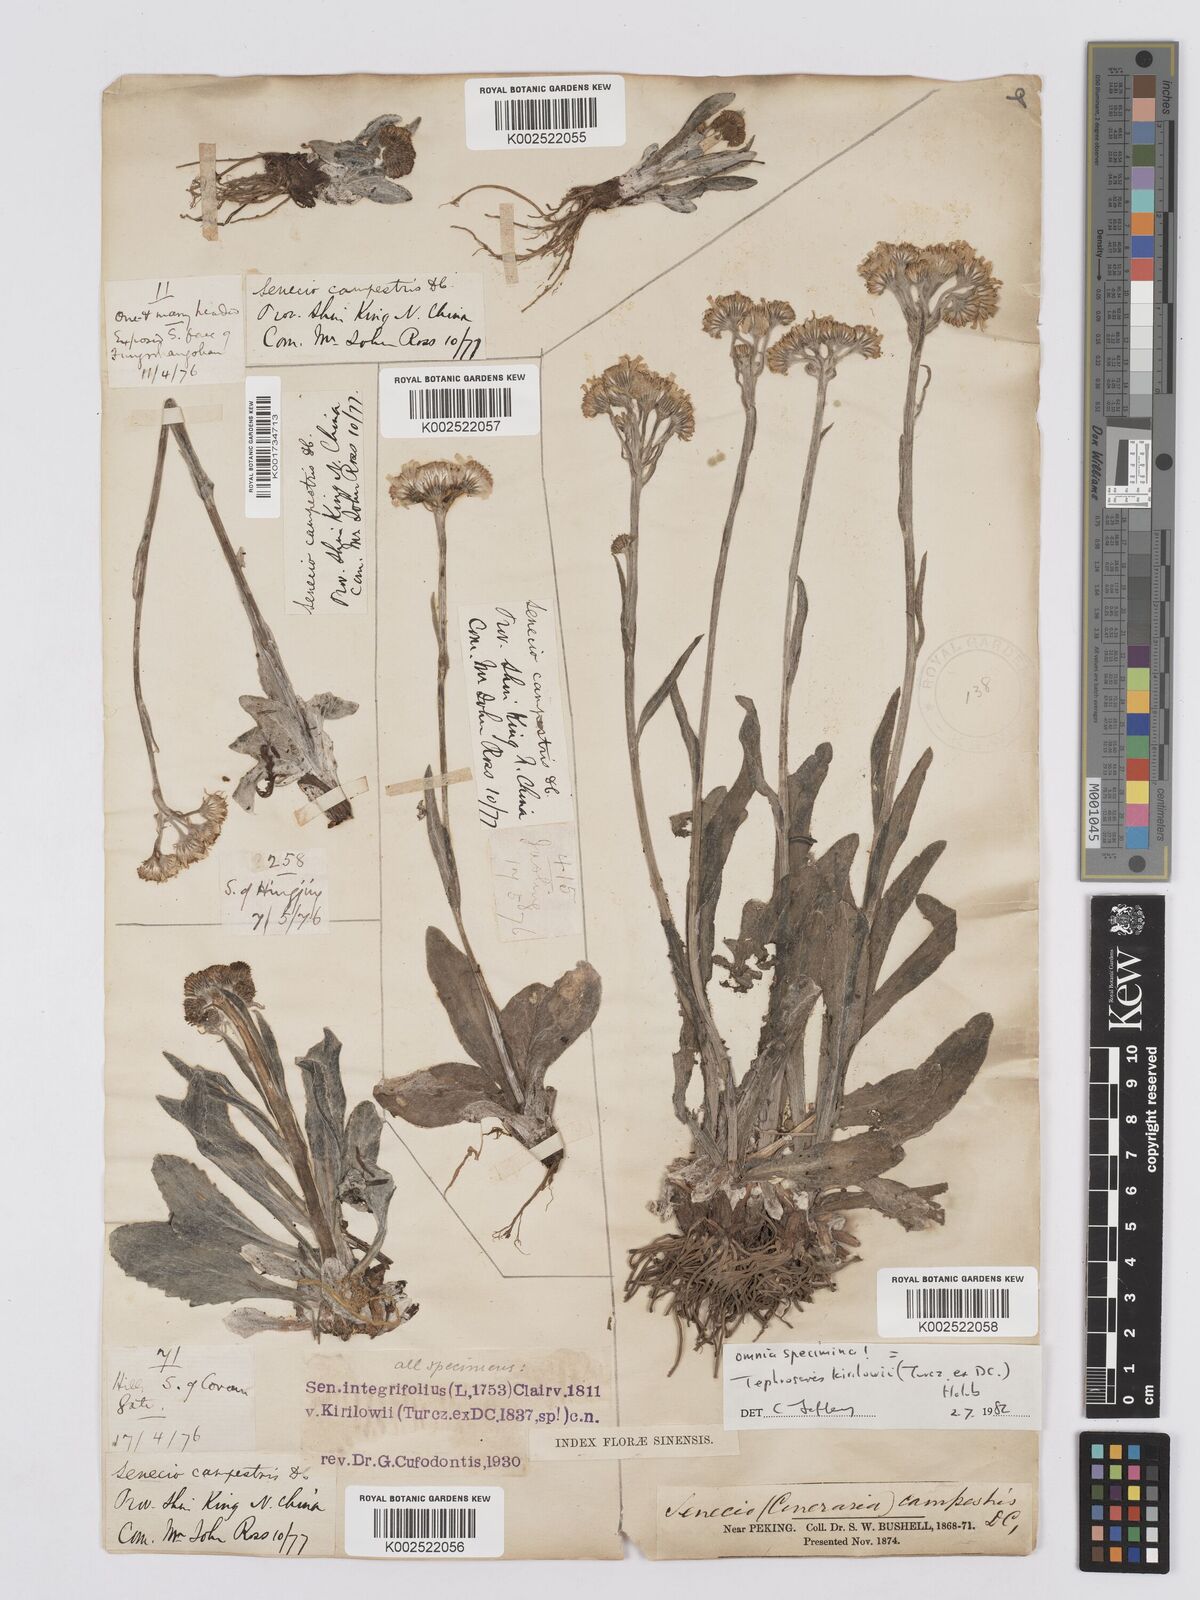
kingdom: Plantae
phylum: Tracheophyta
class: Magnoliopsida
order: Asterales
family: Asteraceae
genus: Tephroseris
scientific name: Tephroseris kirilowii
